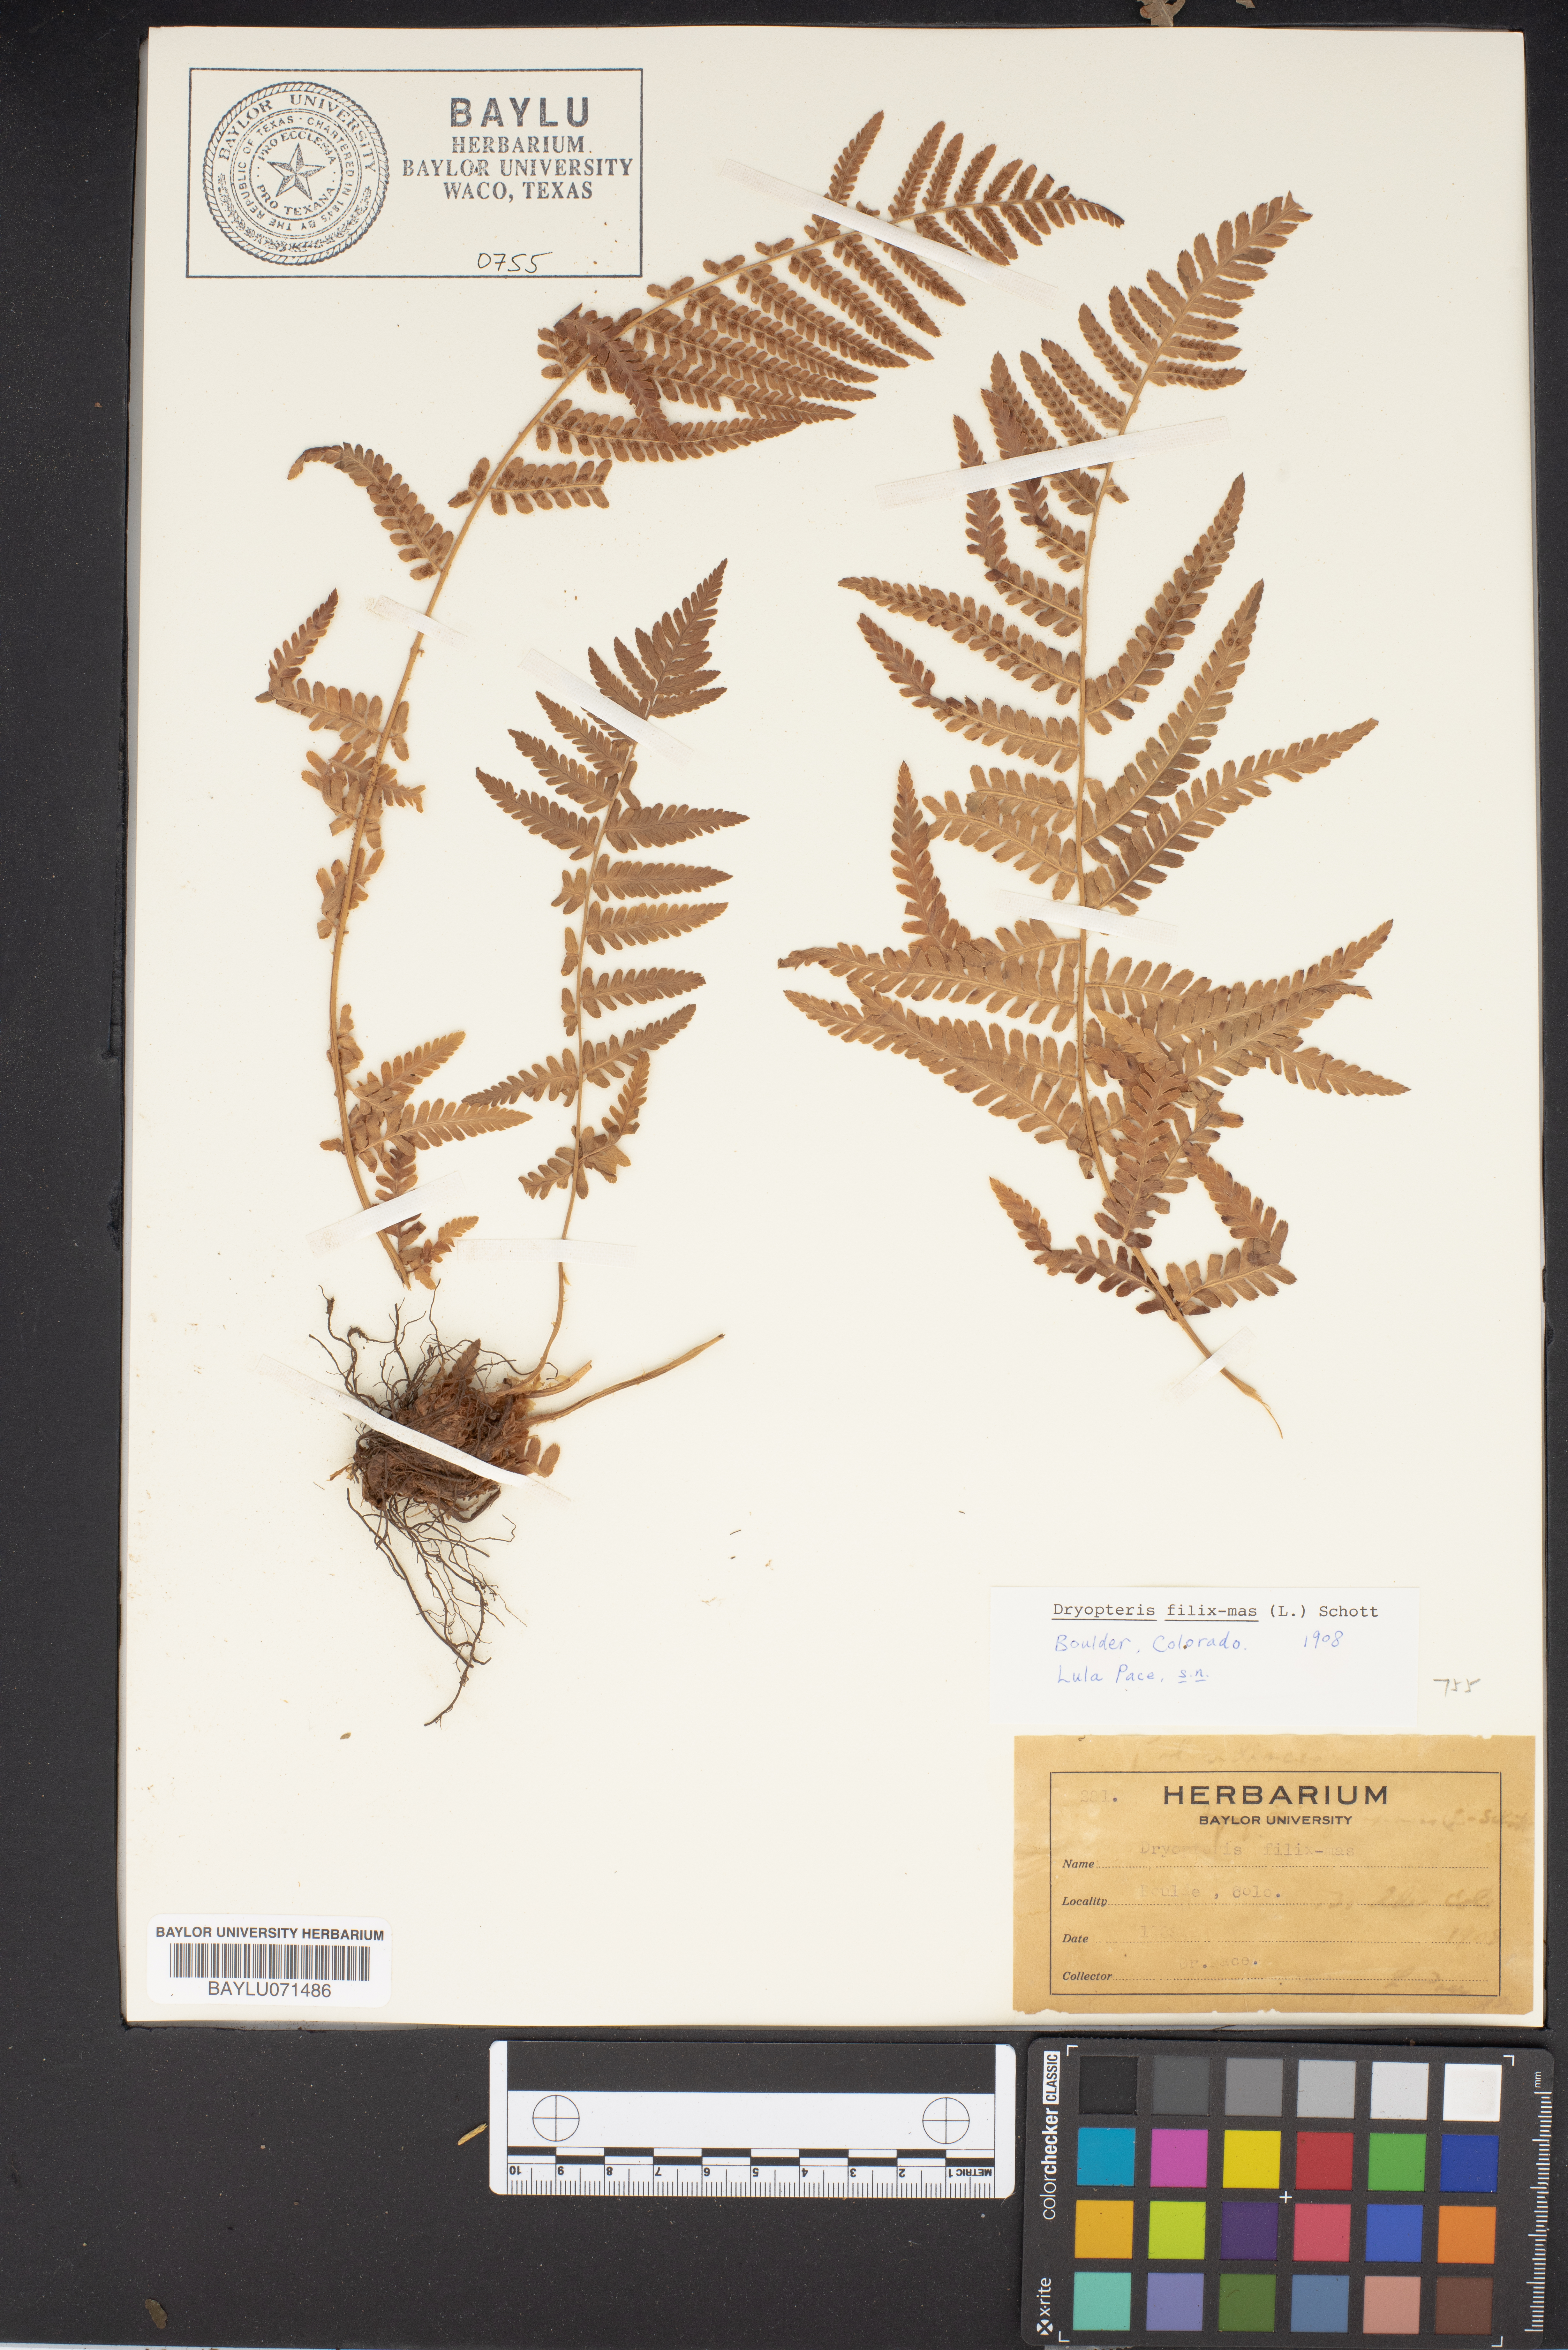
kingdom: Plantae
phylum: Tracheophyta
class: Polypodiopsida
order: Polypodiales
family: Dryopteridaceae
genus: Dryopteris
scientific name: Dryopteris filix-mas
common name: Male fern
